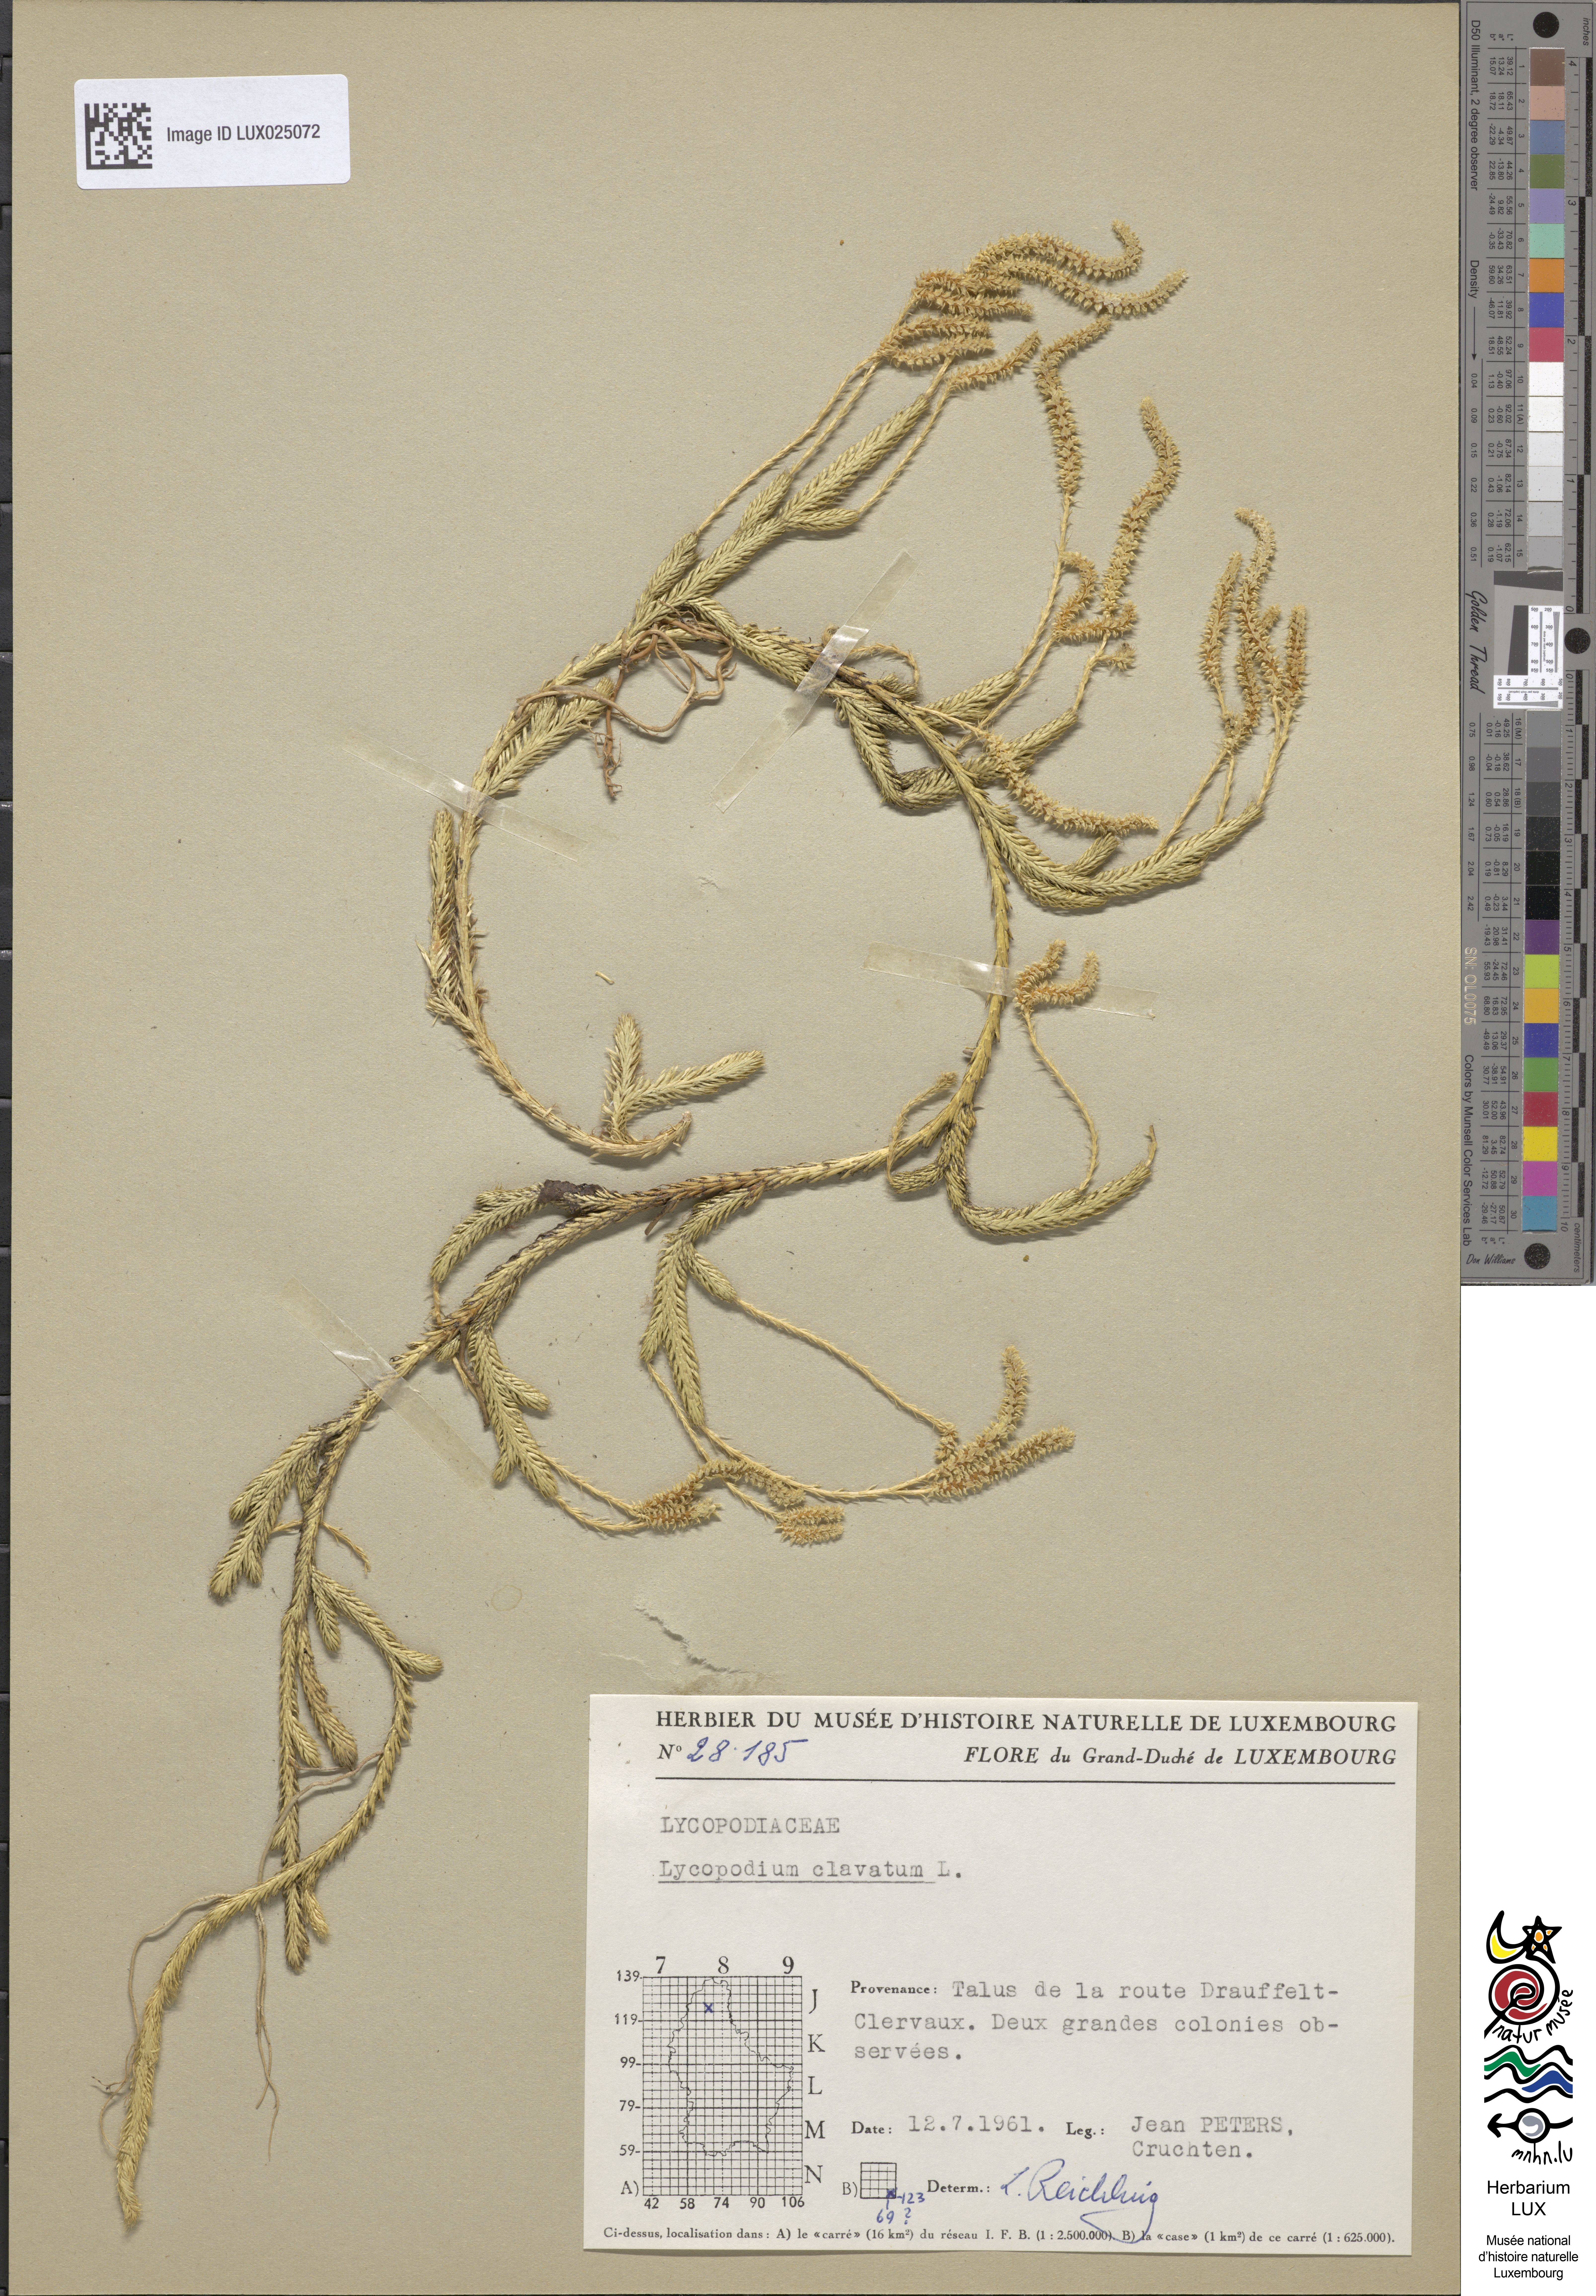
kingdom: Plantae
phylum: Tracheophyta
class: Lycopodiopsida
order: Lycopodiales
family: Lycopodiaceae
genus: Lycopodium
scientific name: Lycopodium clavatum
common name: Stag's-horn clubmoss
